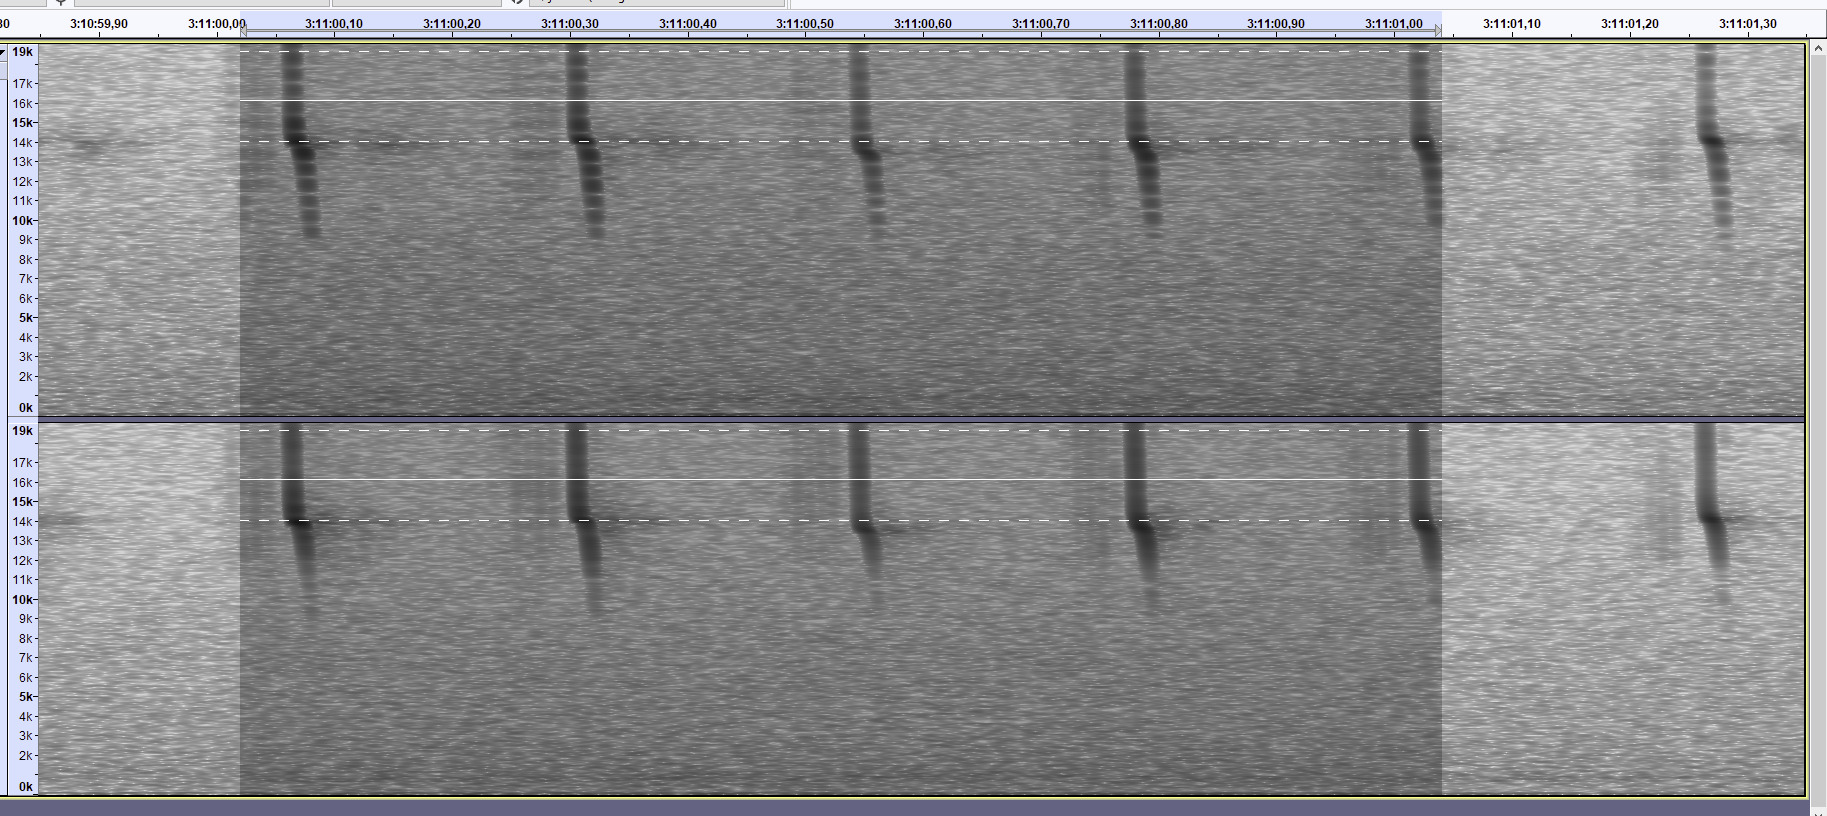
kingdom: Animalia
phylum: Chordata
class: Mammalia
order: Chiroptera
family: Vespertilionidae
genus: Vespertilio
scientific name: Vespertilio murinus
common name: Skimmelflagermus
